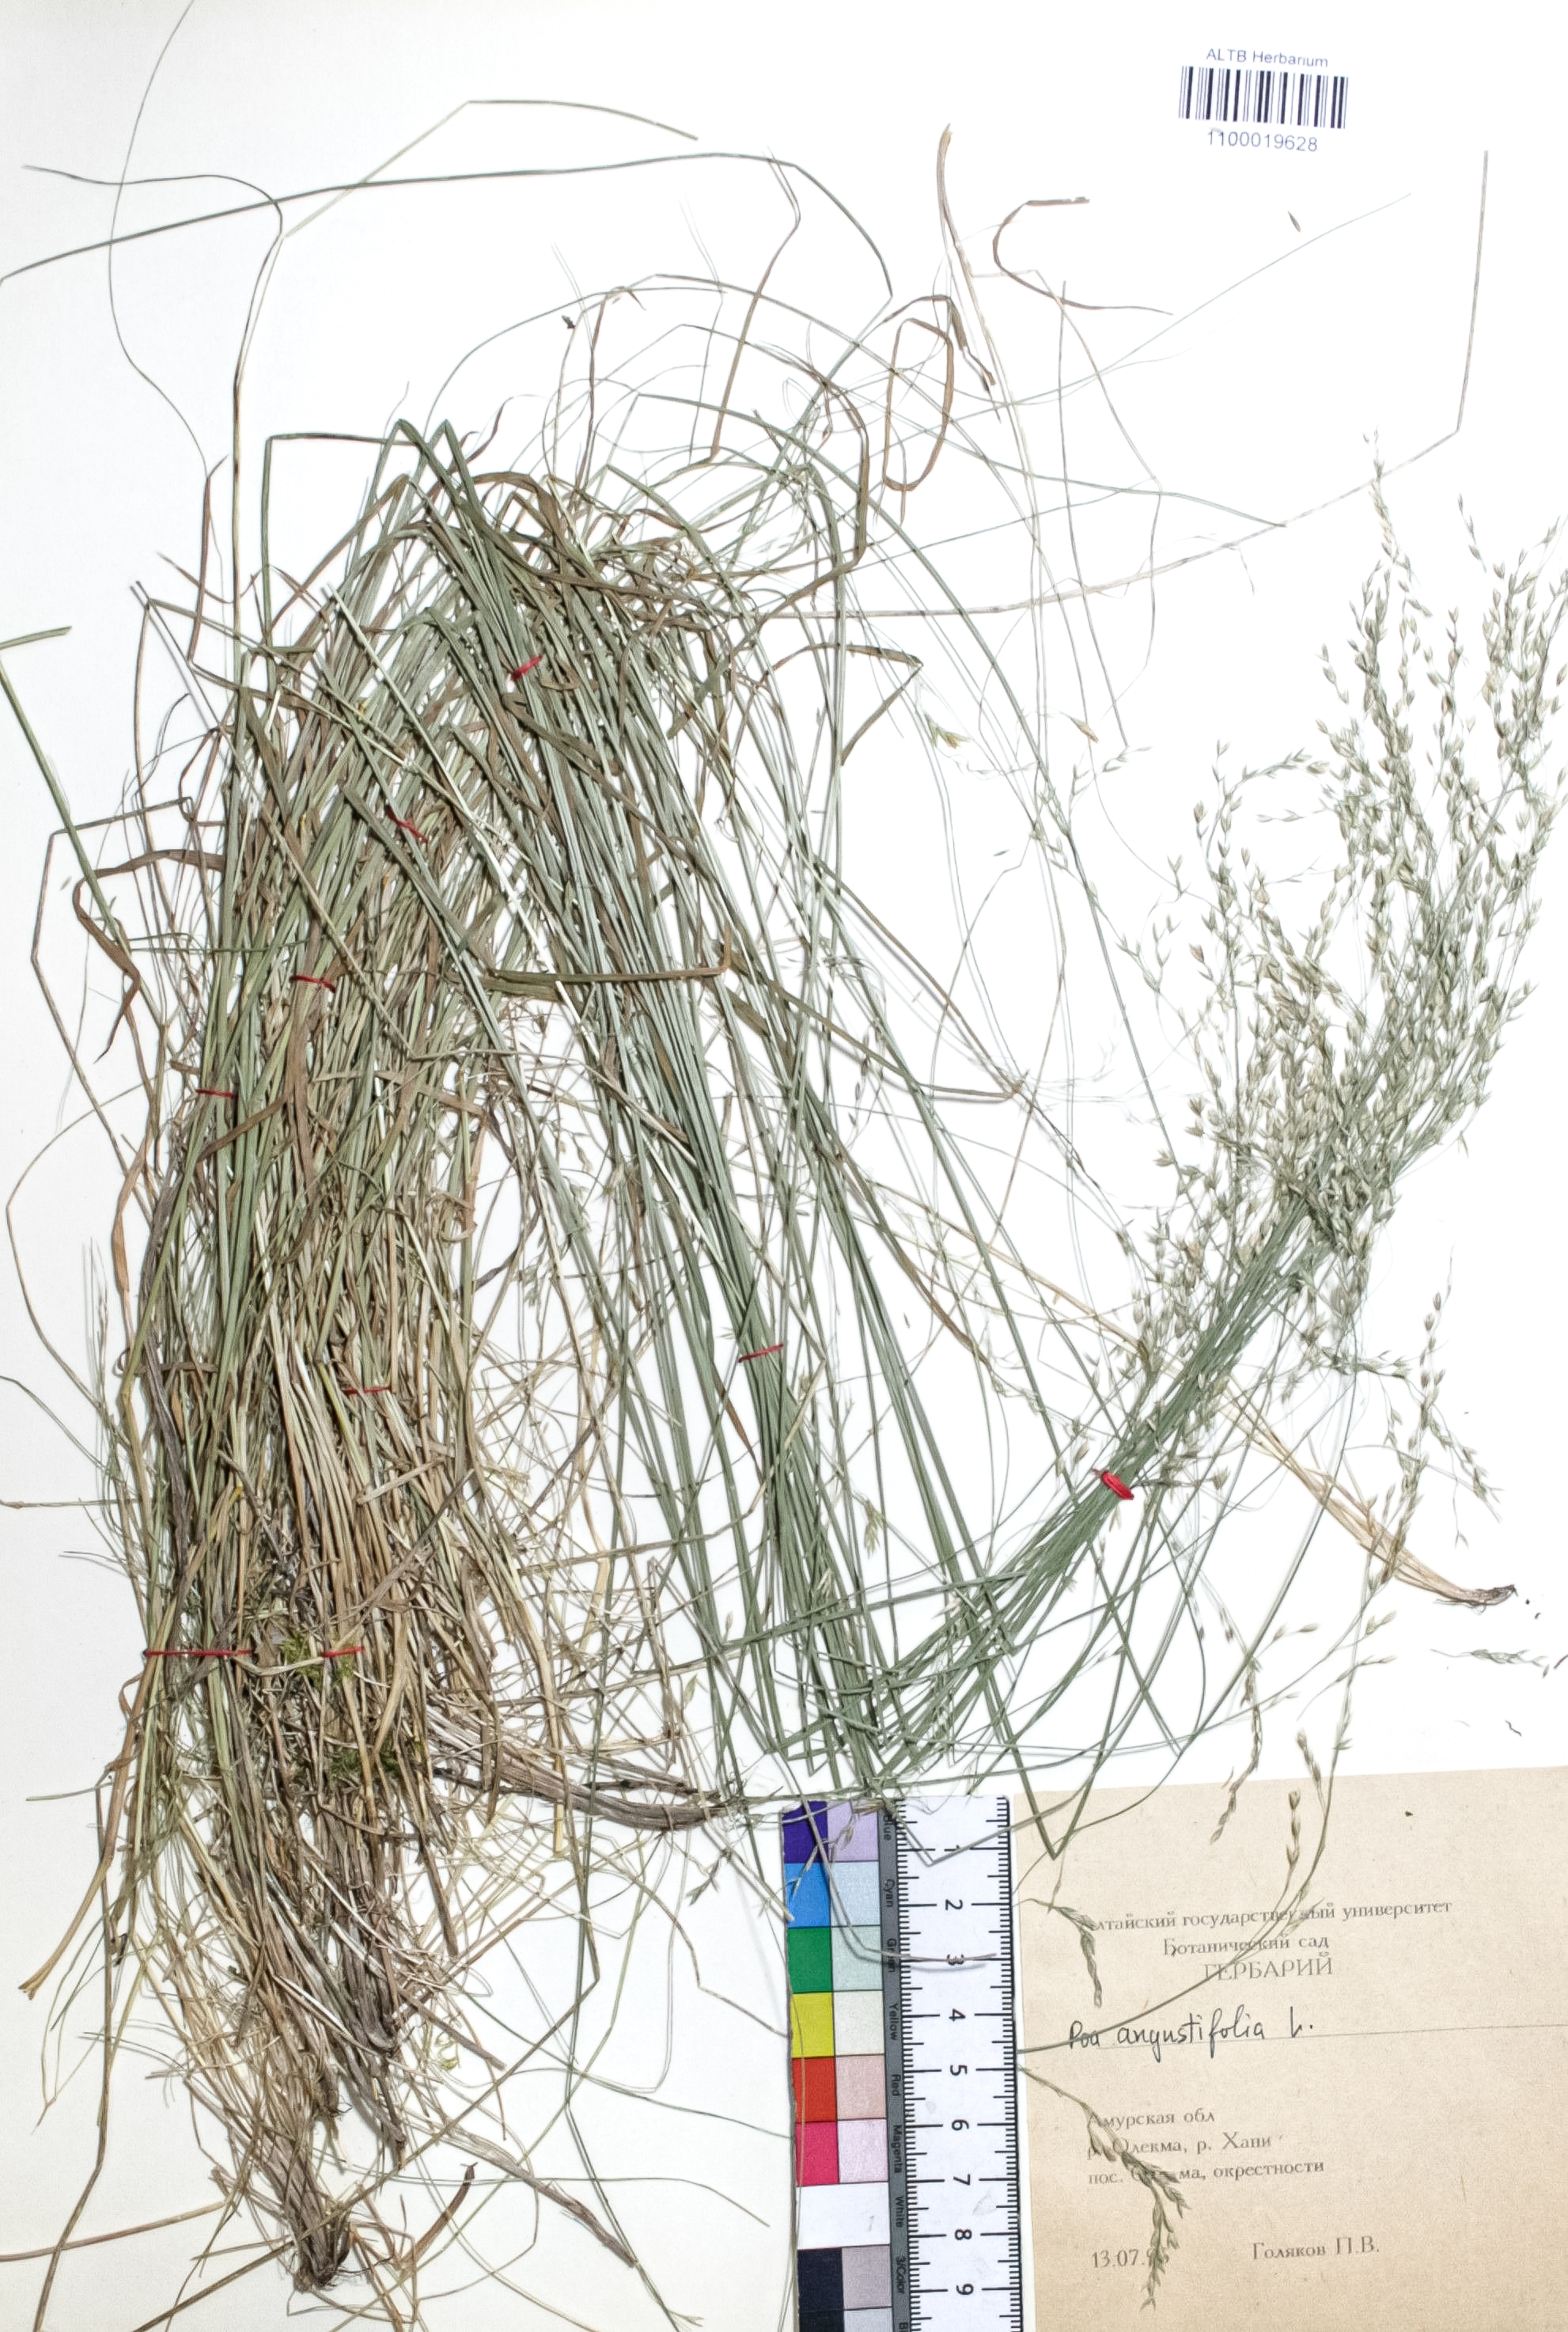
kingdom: Plantae
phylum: Tracheophyta
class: Liliopsida
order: Poales
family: Poaceae
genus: Poa
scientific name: Poa angustifolia
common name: Narrow-leaved meadow-grass
